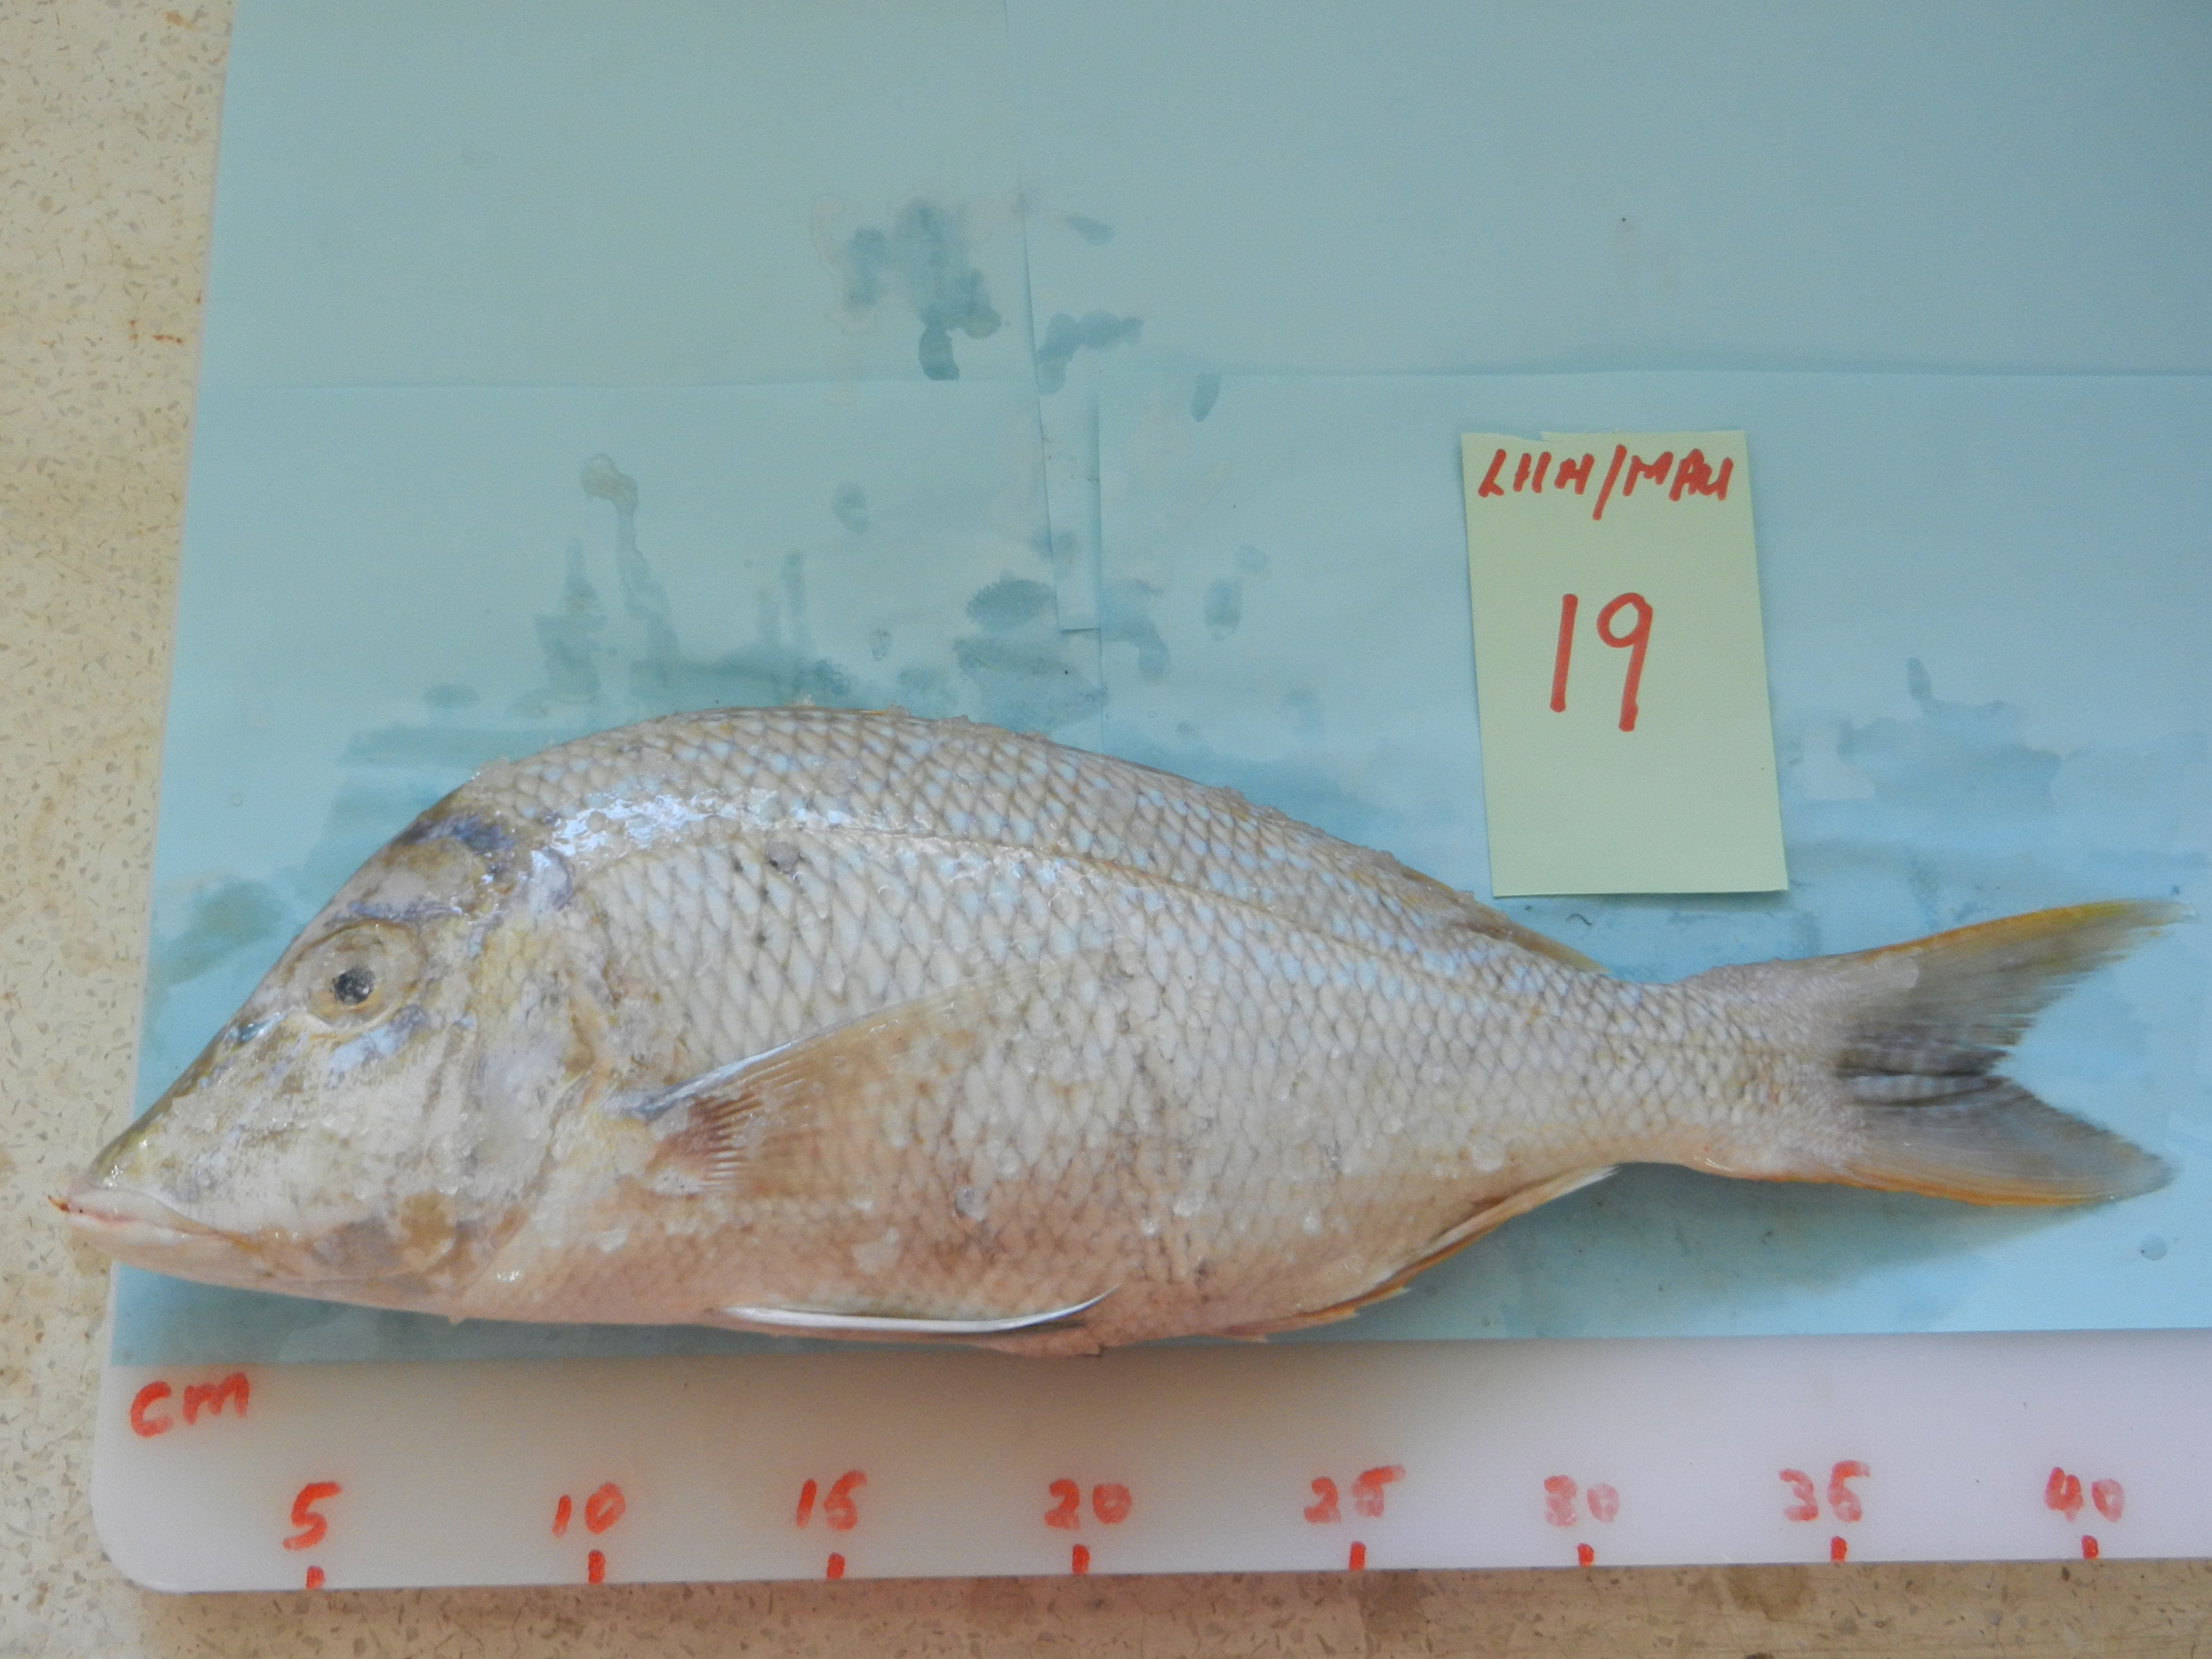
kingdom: Animalia
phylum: Chordata
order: Perciformes
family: Lethrinidae
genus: Lethrinus
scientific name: Lethrinus nebulosus
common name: Spangled emperor
